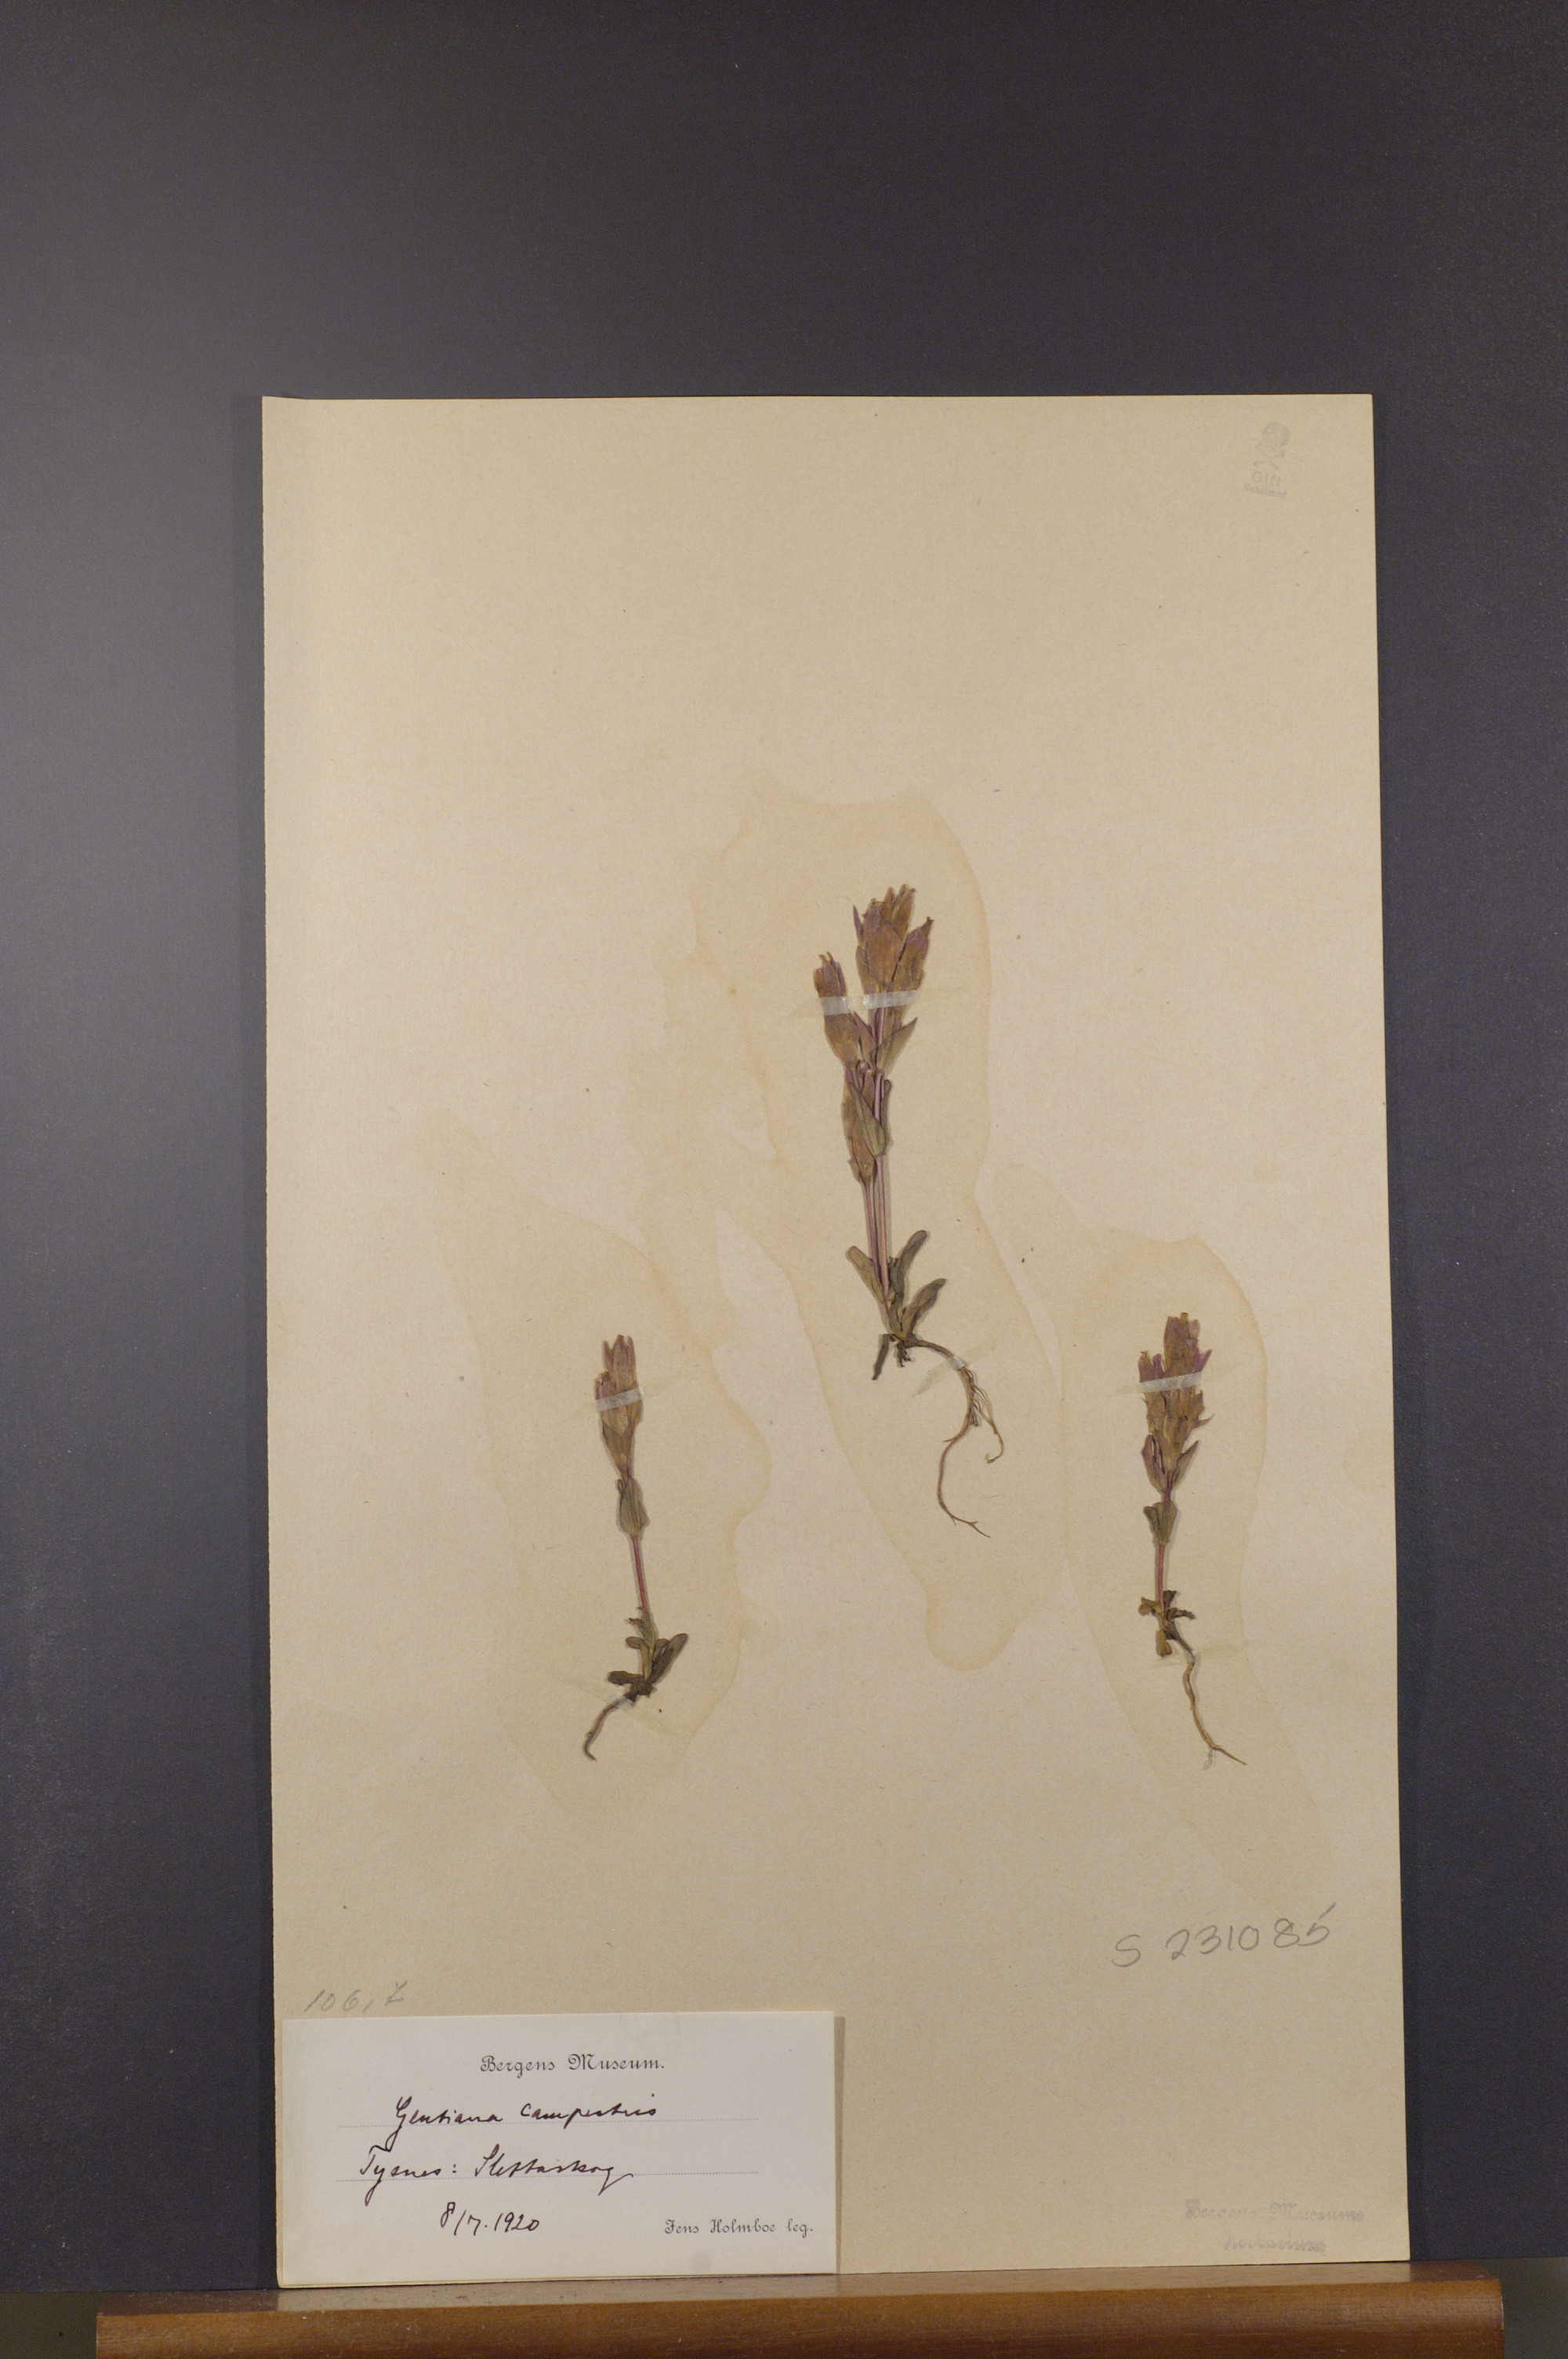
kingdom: Plantae
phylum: Tracheophyta
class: Magnoliopsida
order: Gentianales
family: Gentianaceae
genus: Gentianella
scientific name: Gentianella campestris
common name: Field gentian
